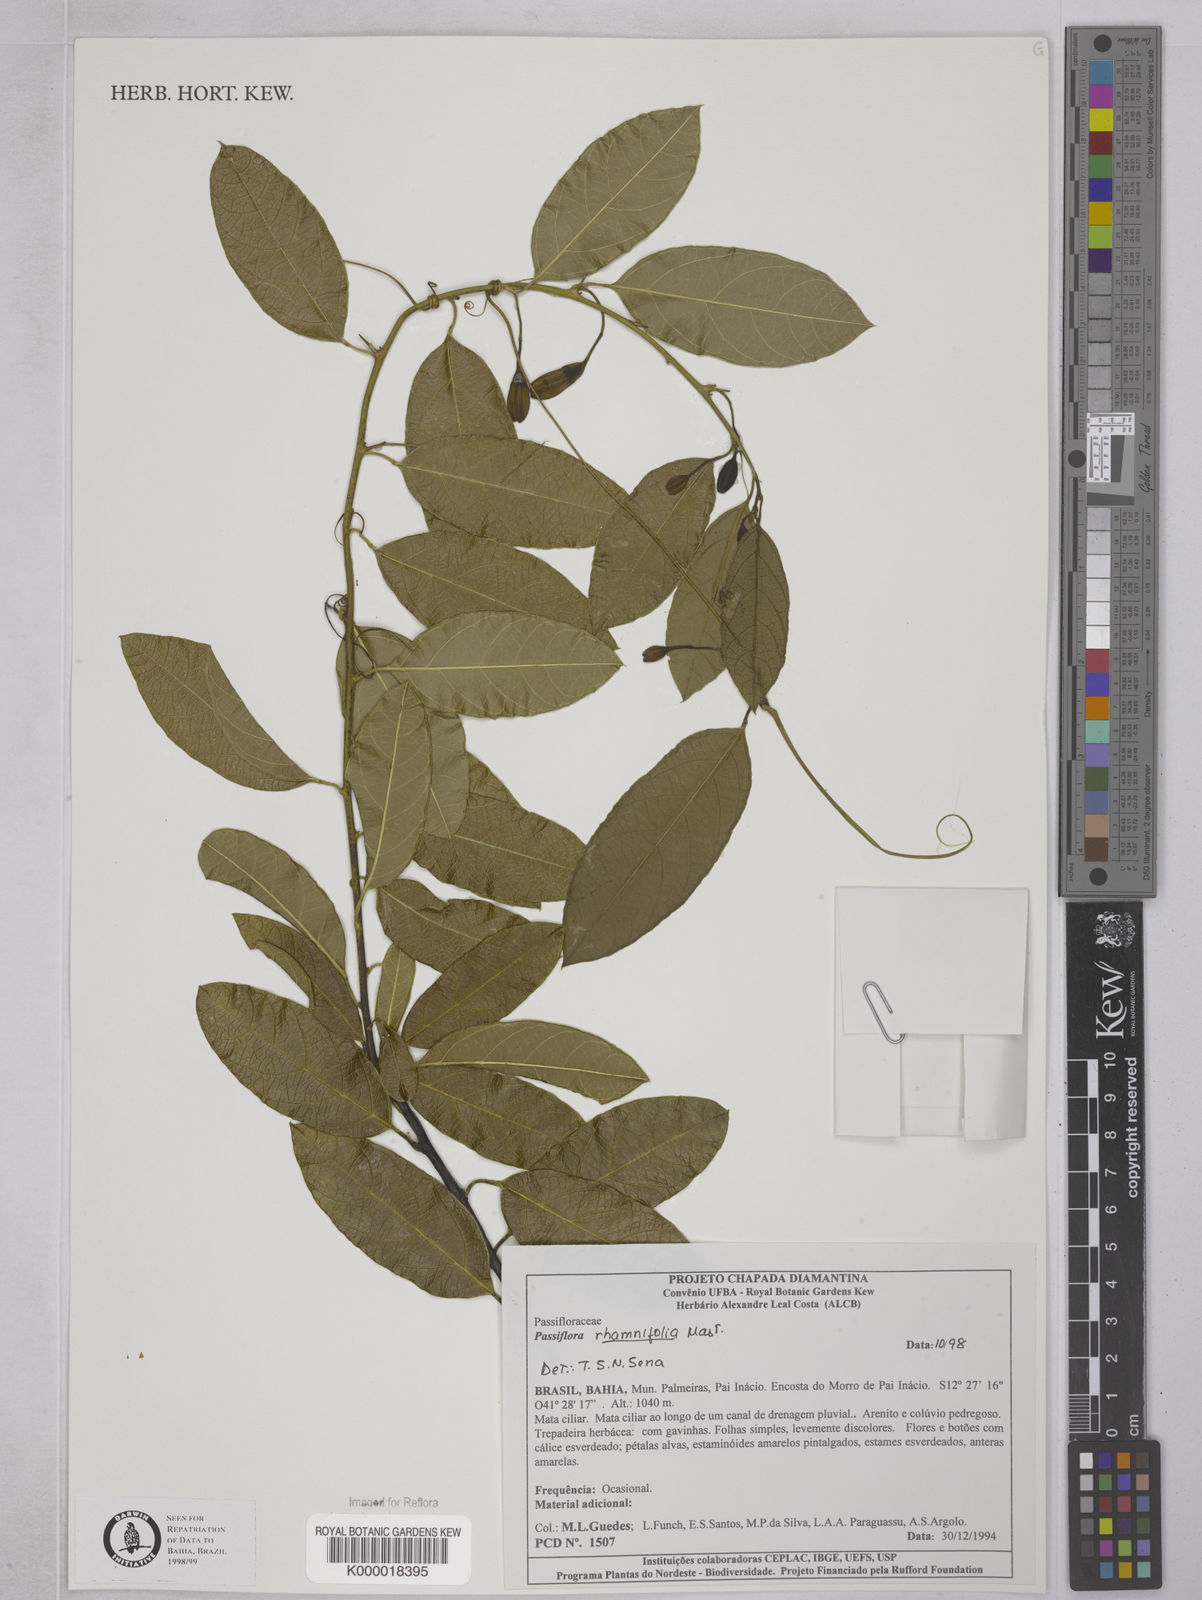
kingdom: Plantae
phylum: Tracheophyta
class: Magnoliopsida
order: Malpighiales
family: Passifloraceae
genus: Passiflora
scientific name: Passiflora rhamnifolia
